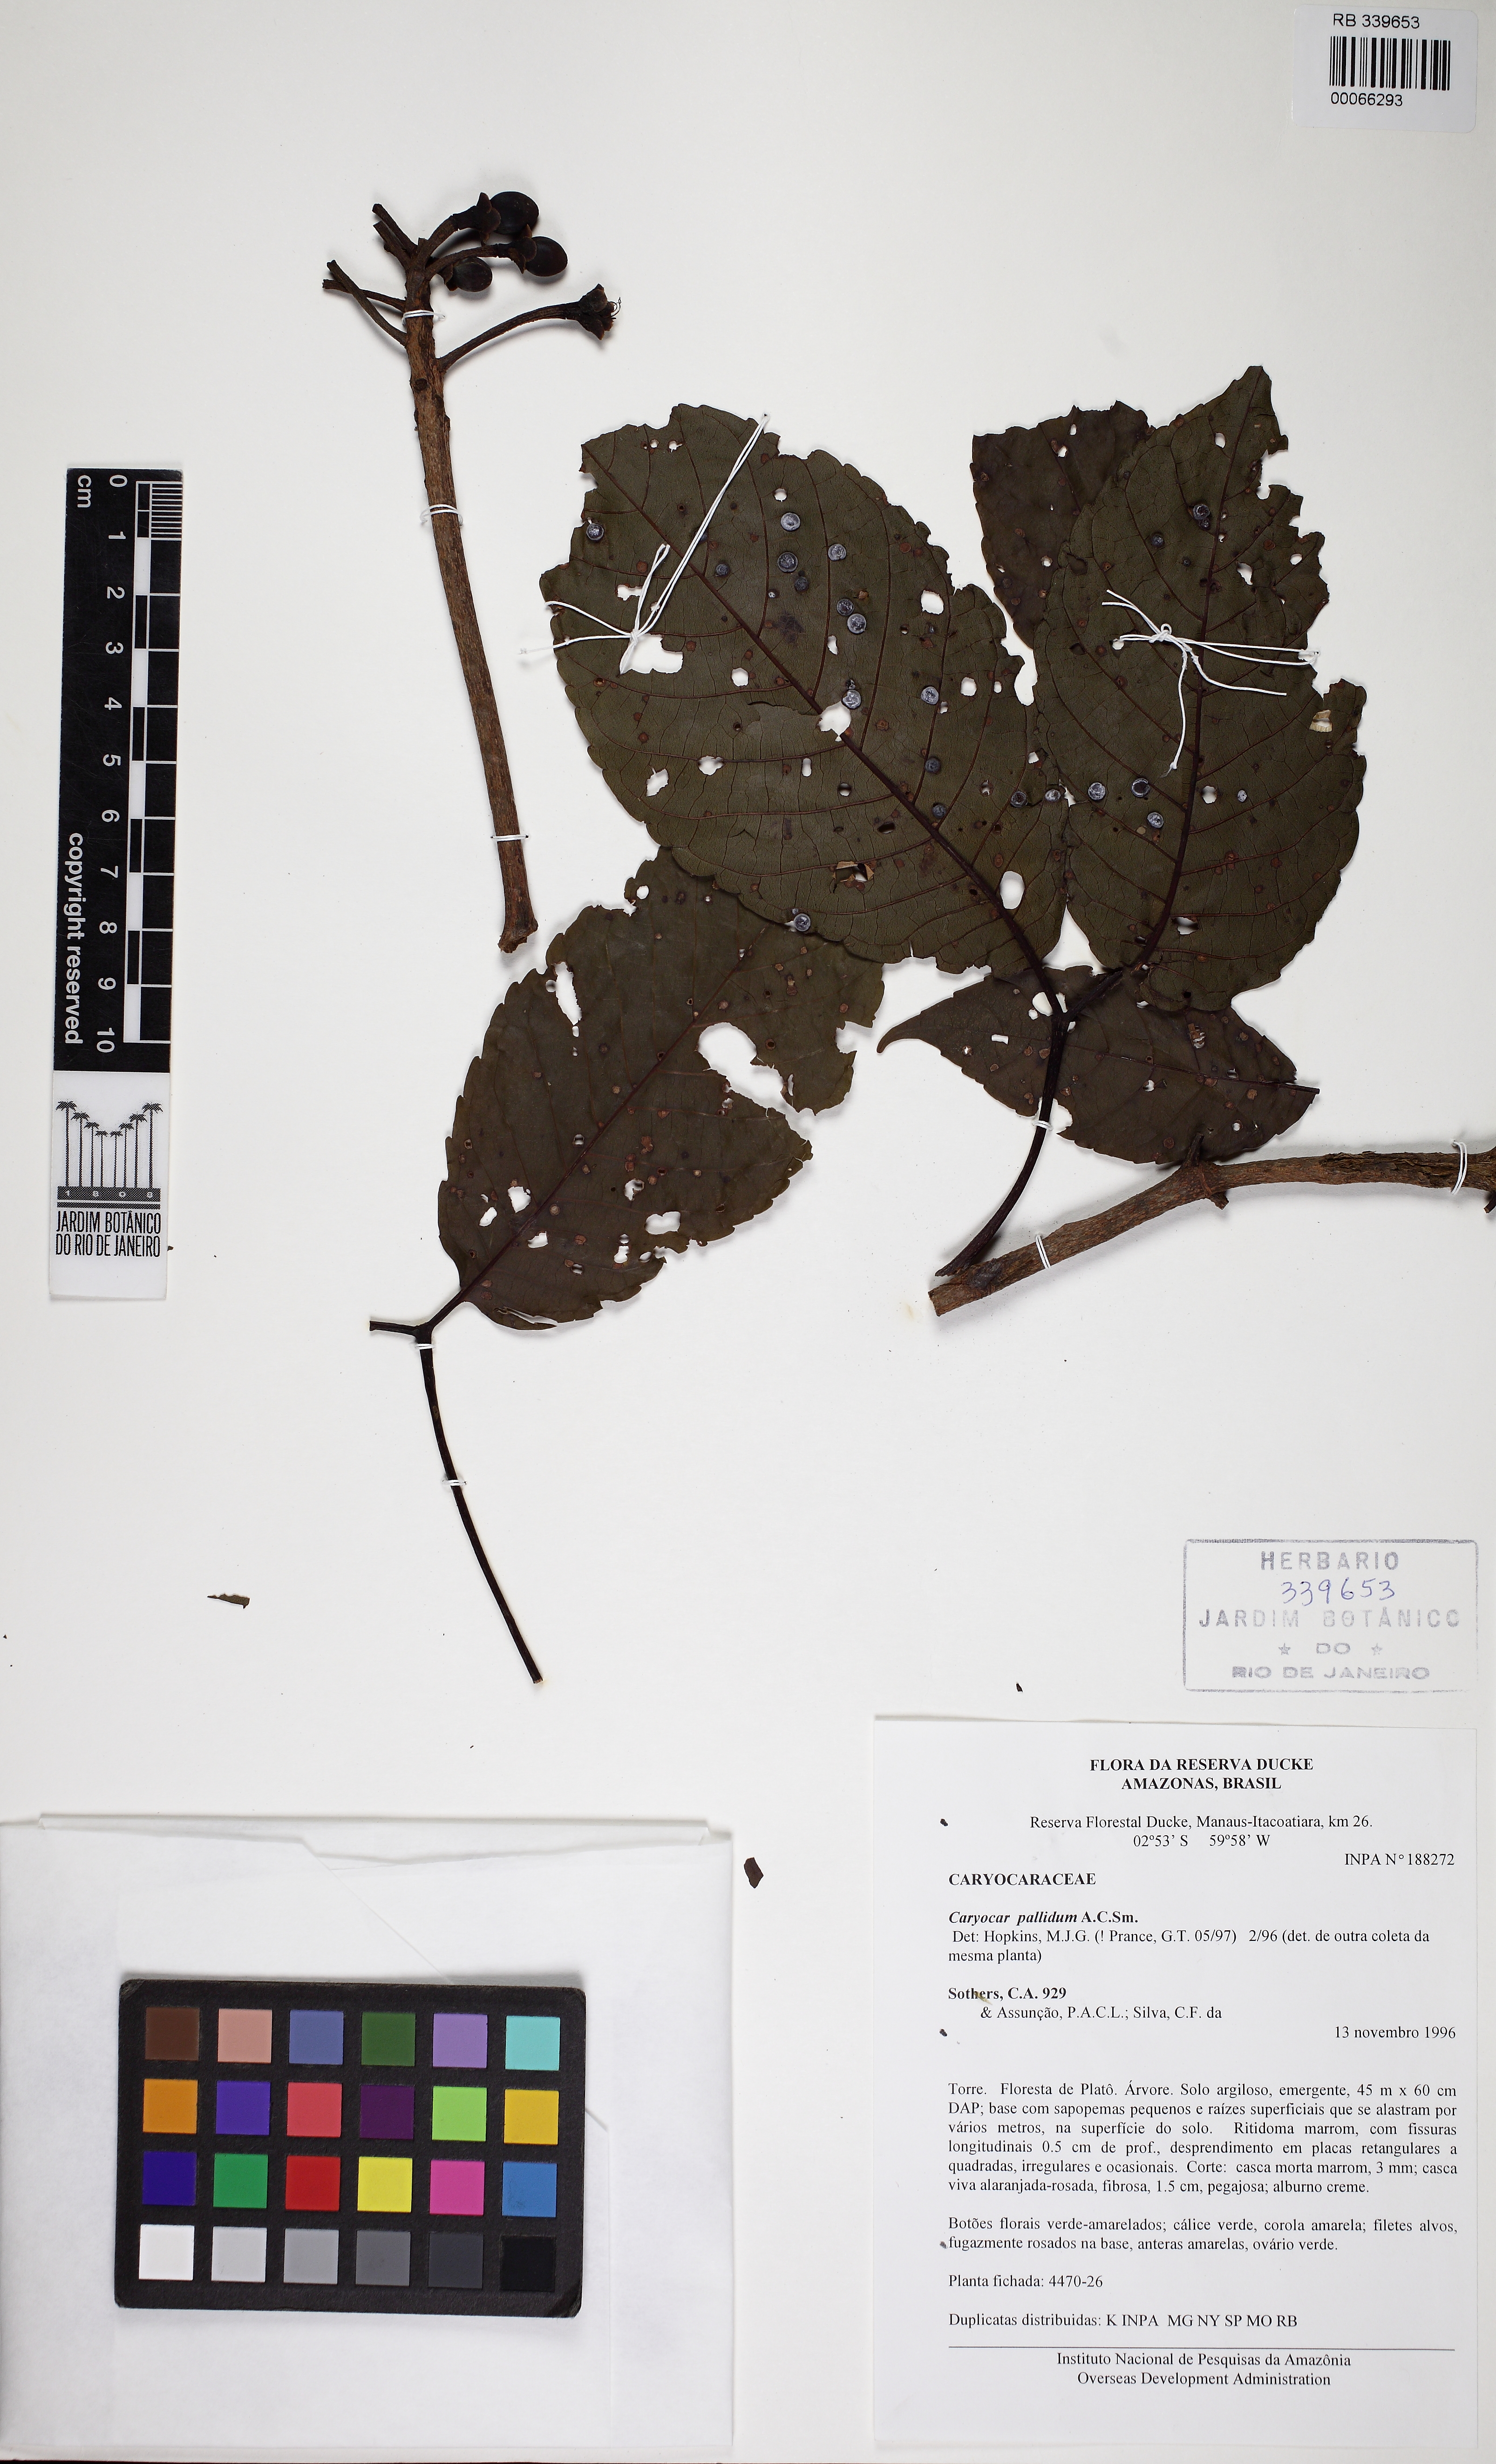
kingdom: Plantae
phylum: Tracheophyta
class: Magnoliopsida
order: Malpighiales
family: Caryocaraceae
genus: Caryocar
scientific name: Caryocar pallidum
